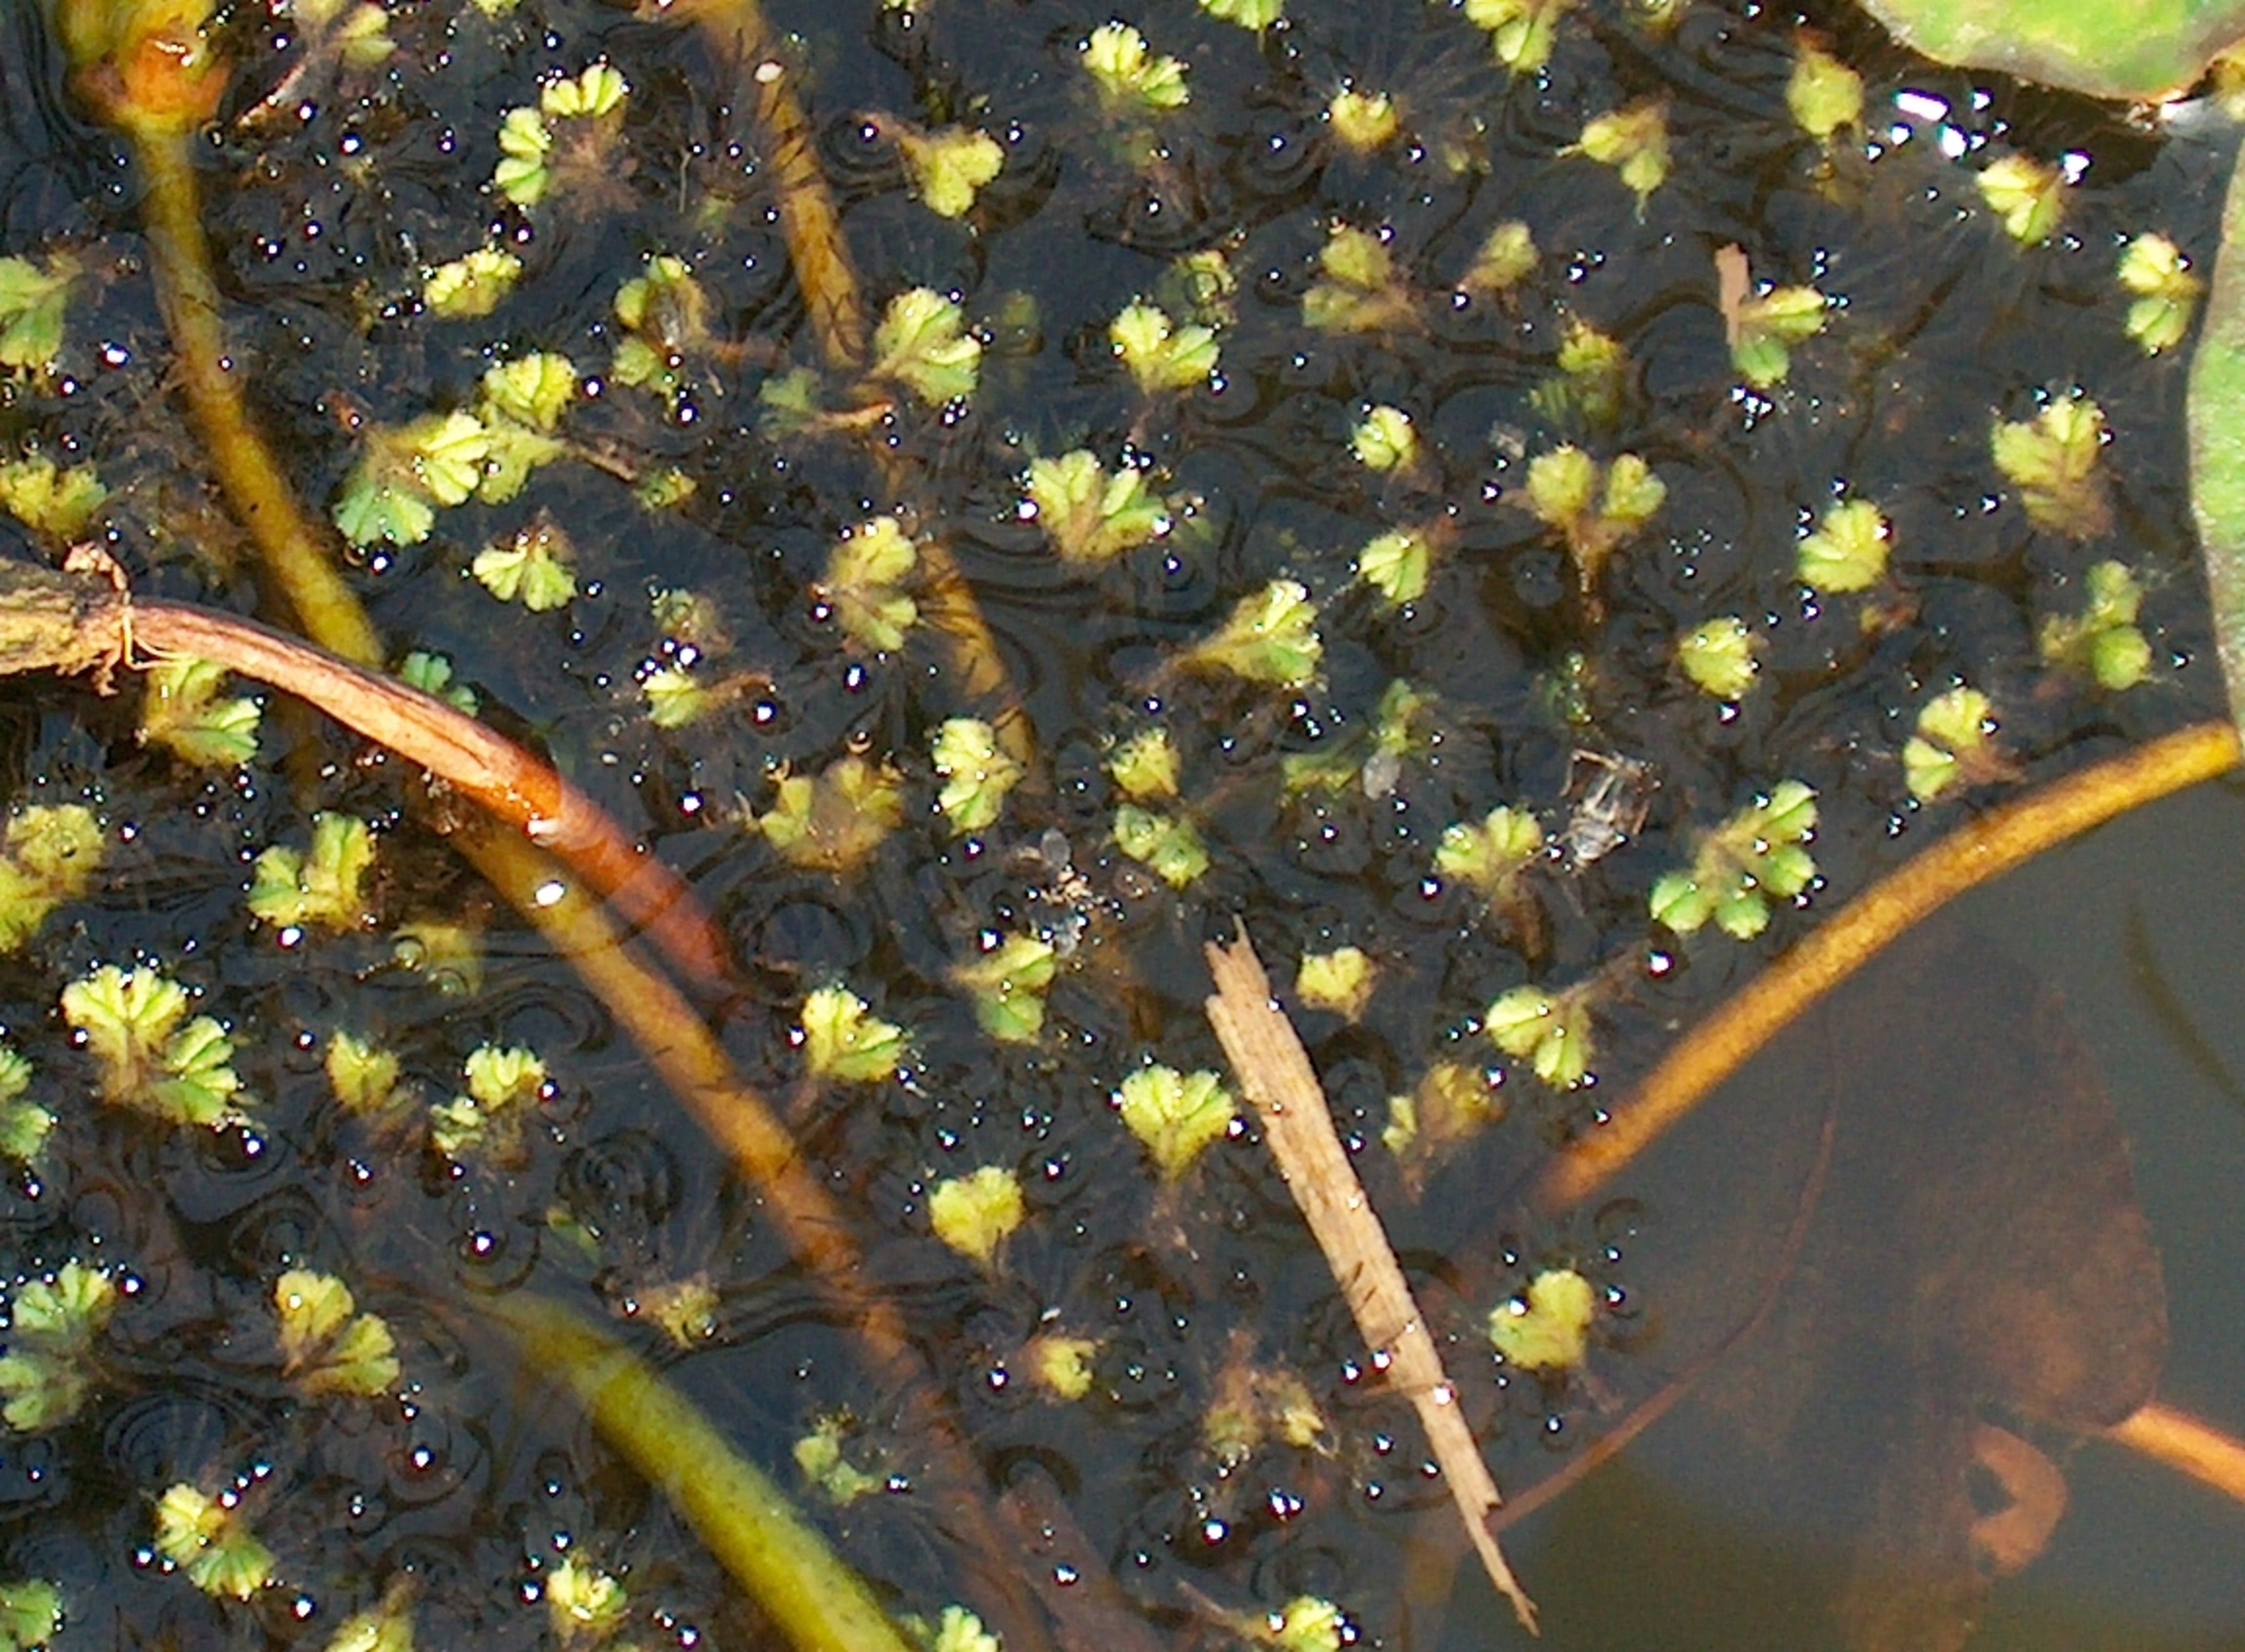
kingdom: Plantae
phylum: Marchantiophyta
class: Marchantiopsida
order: Marchantiales
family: Ricciaceae
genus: Ricciocarpos
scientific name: Ricciocarpos natans
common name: Flydende skælløv
